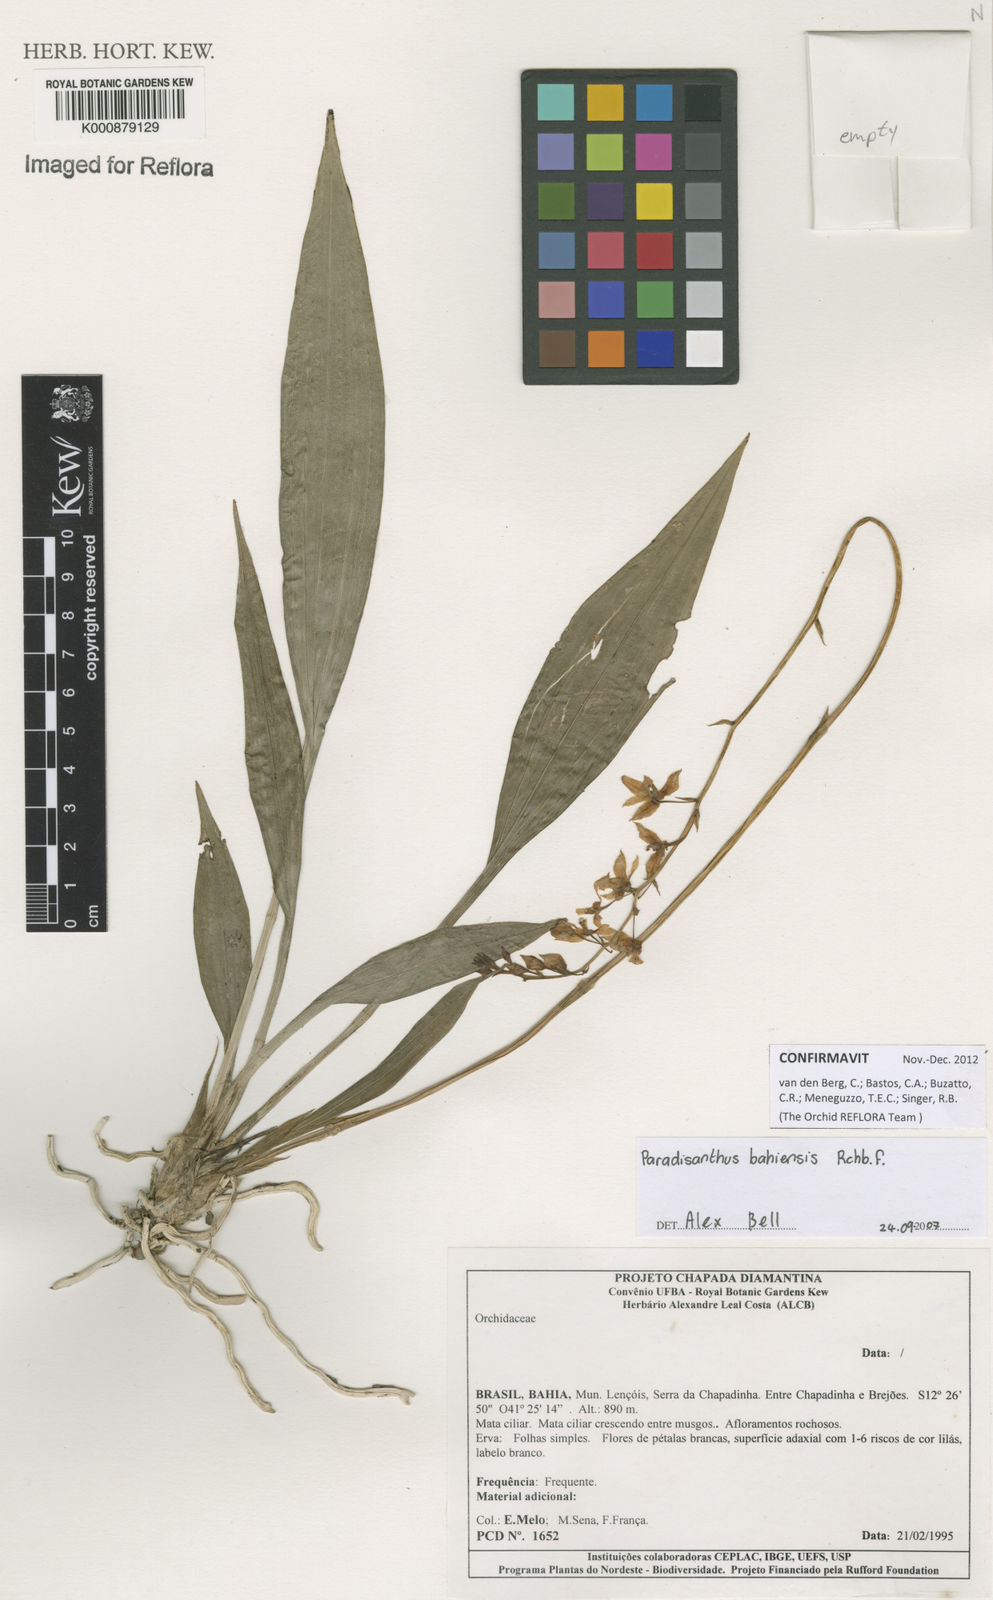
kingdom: Plantae
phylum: Tracheophyta
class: Liliopsida
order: Asparagales
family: Orchidaceae
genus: Paradisanthus
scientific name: Paradisanthus bahiensis
